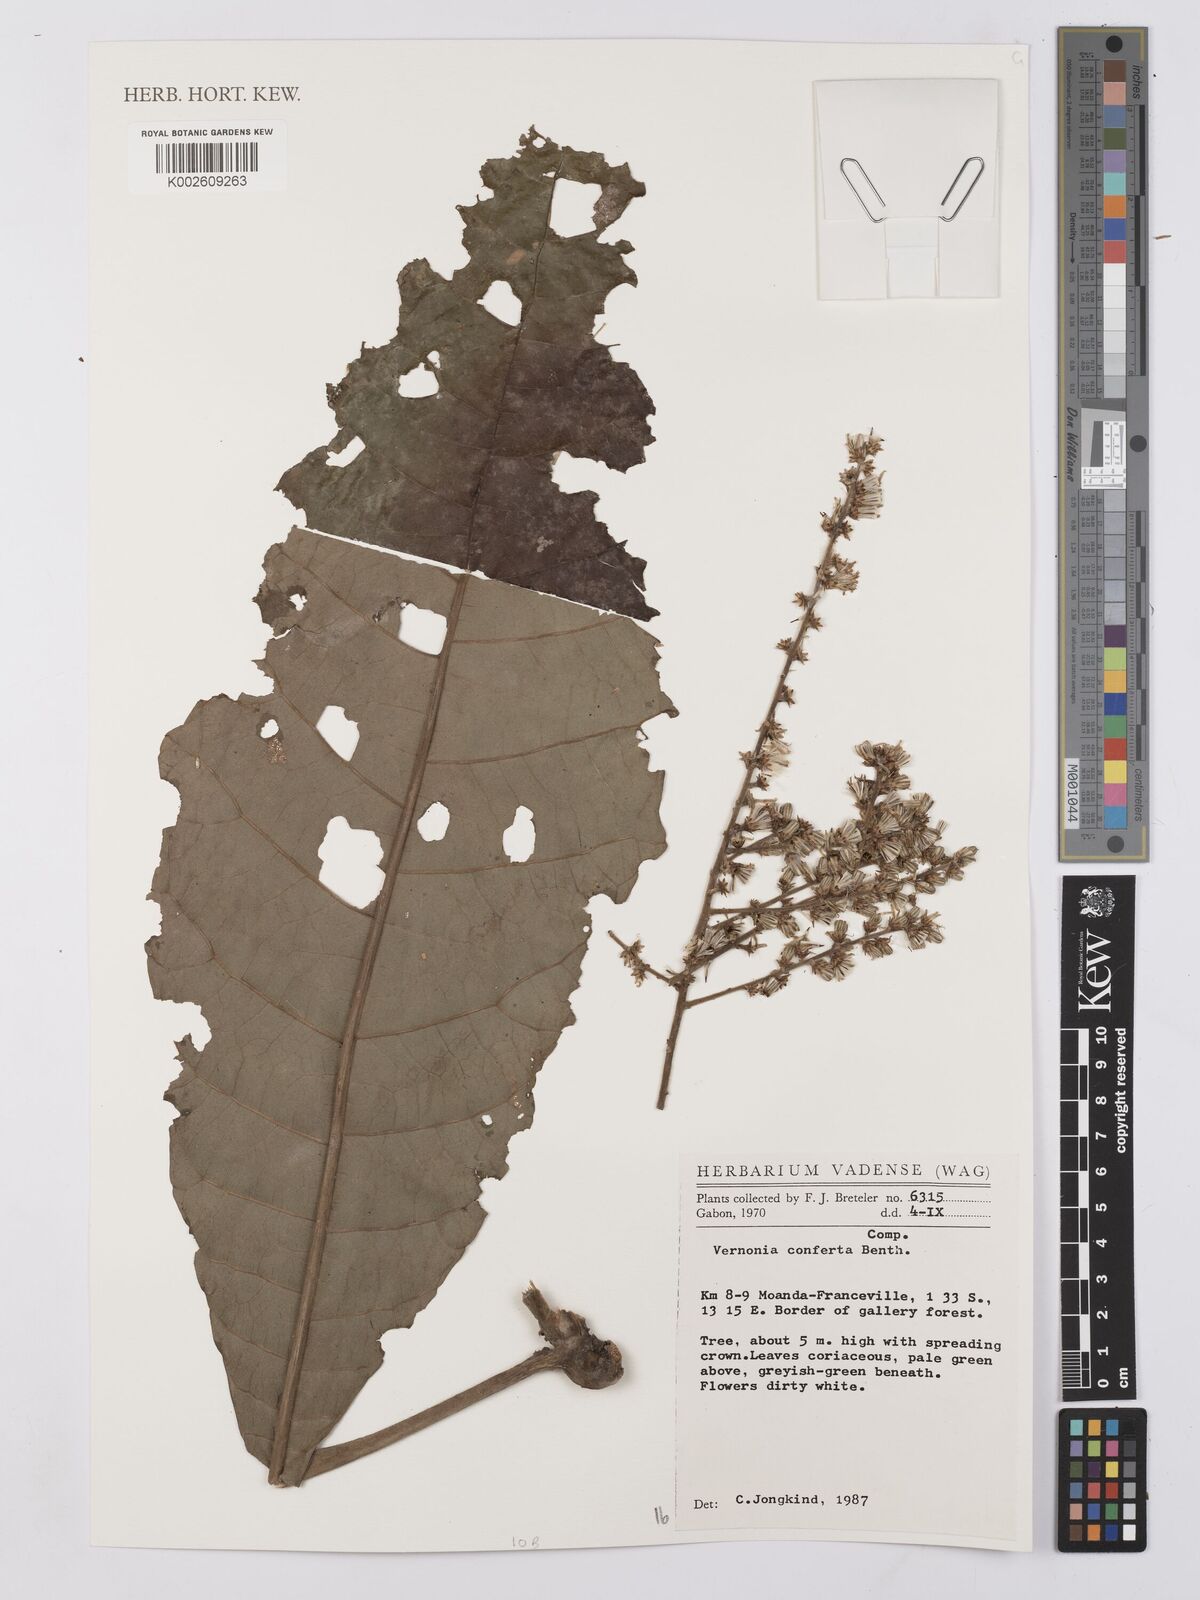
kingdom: Plantae
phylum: Tracheophyta
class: Magnoliopsida
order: Asterales
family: Asteraceae
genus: Monosis
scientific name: Monosis conferta
